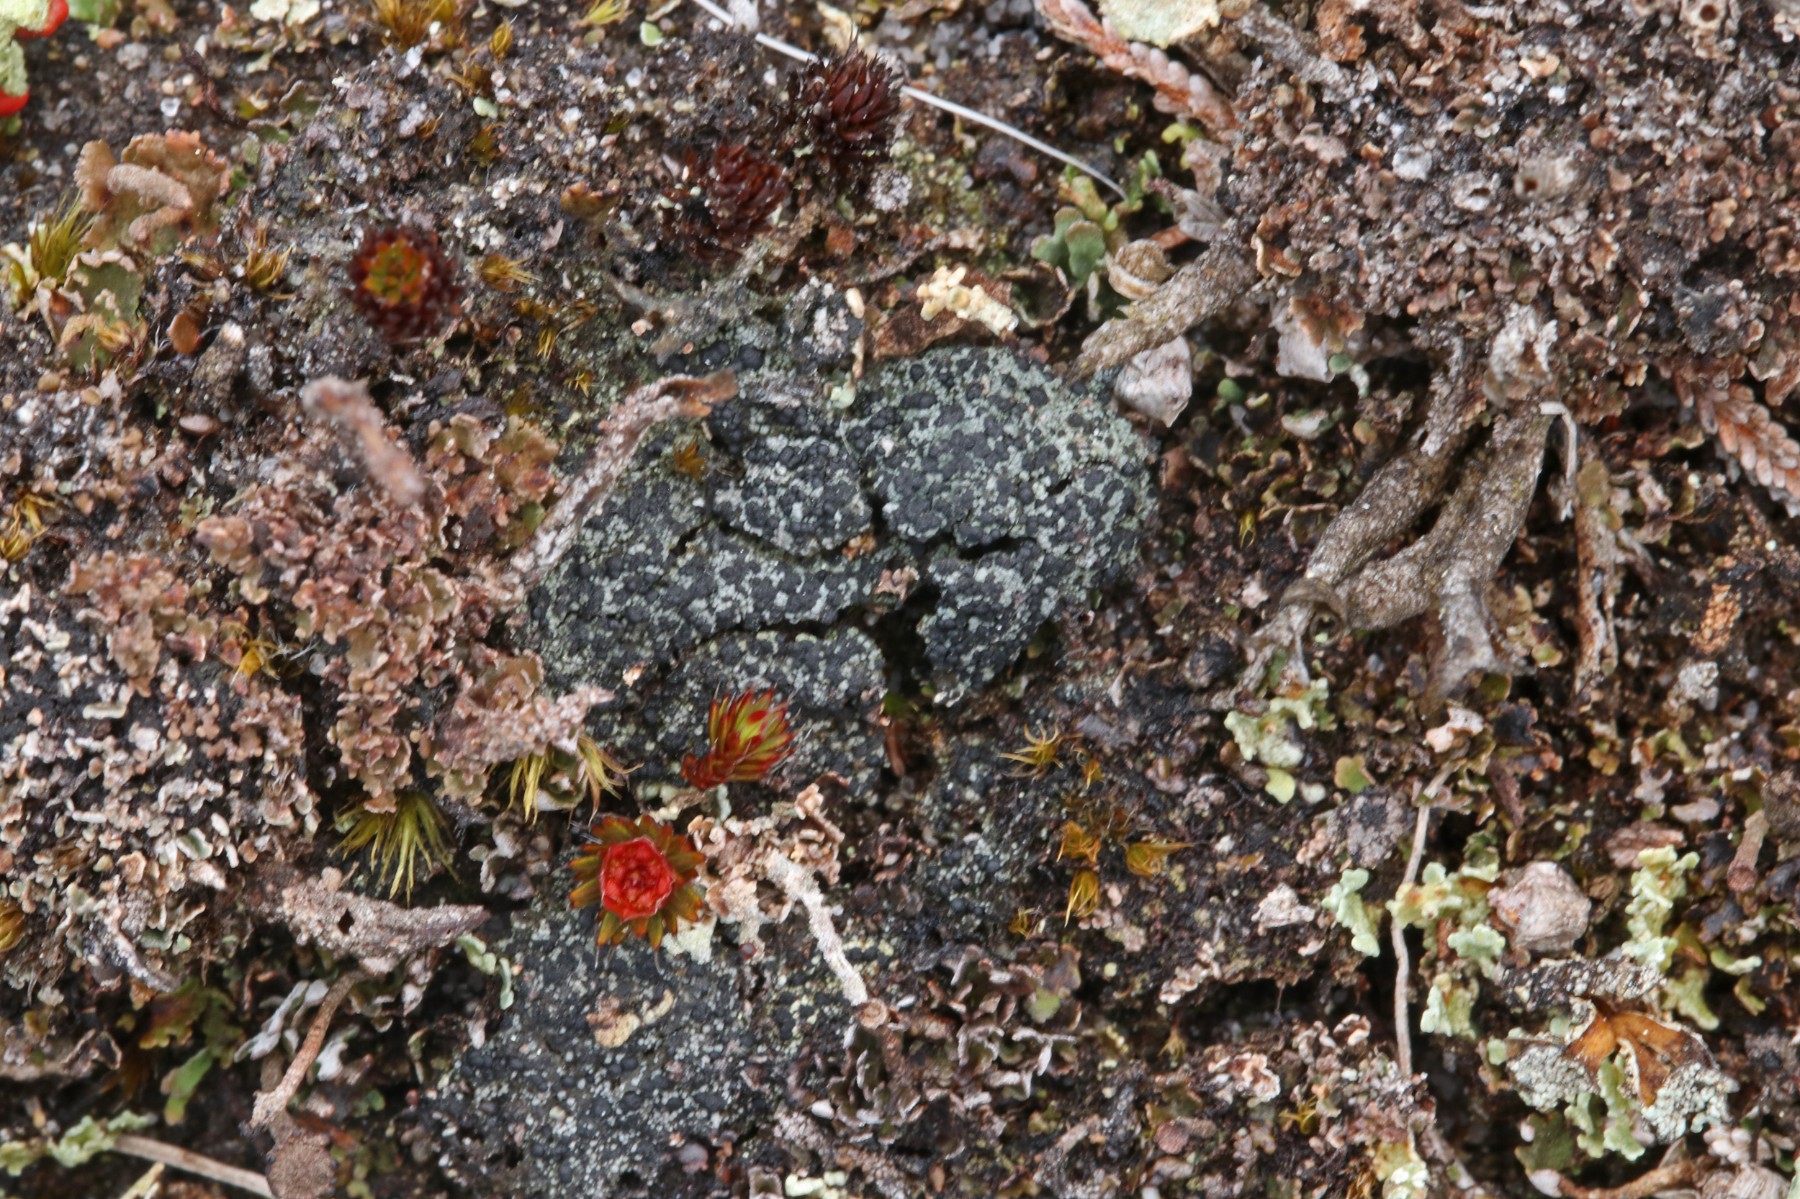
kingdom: Fungi
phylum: Ascomycota
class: Lecanoromycetes
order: Lecanorales
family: Byssolomataceae
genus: Micarea
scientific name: Micarea lignaria
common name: tørve-knaplav
